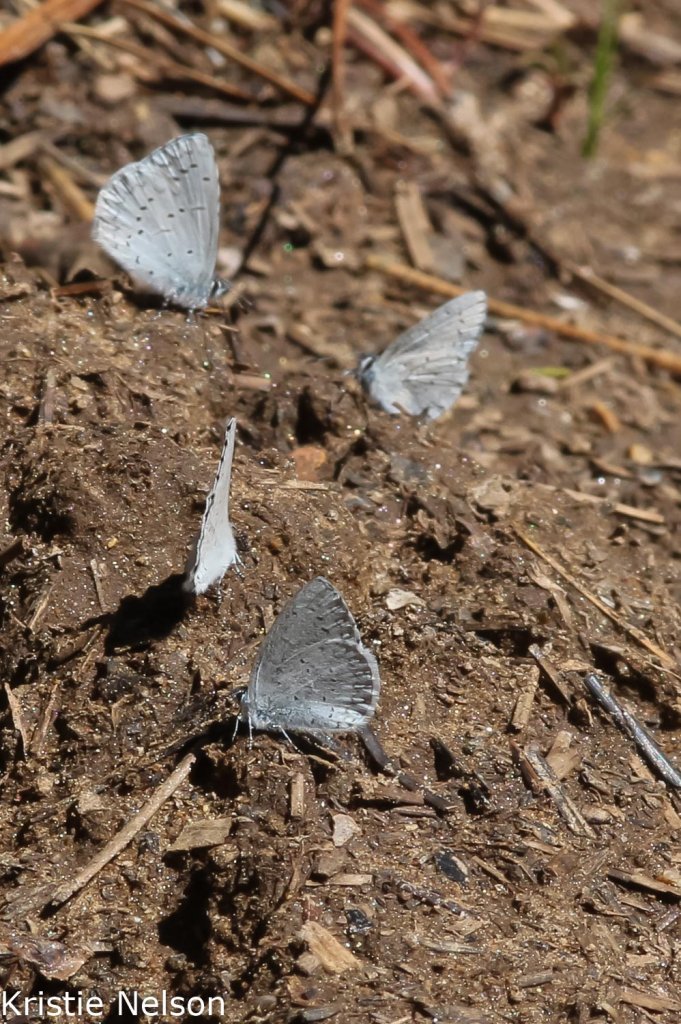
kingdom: Animalia
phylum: Arthropoda
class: Insecta
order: Lepidoptera
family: Lycaenidae
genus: Celastrina
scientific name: Celastrina ladon
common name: Echo Azure
